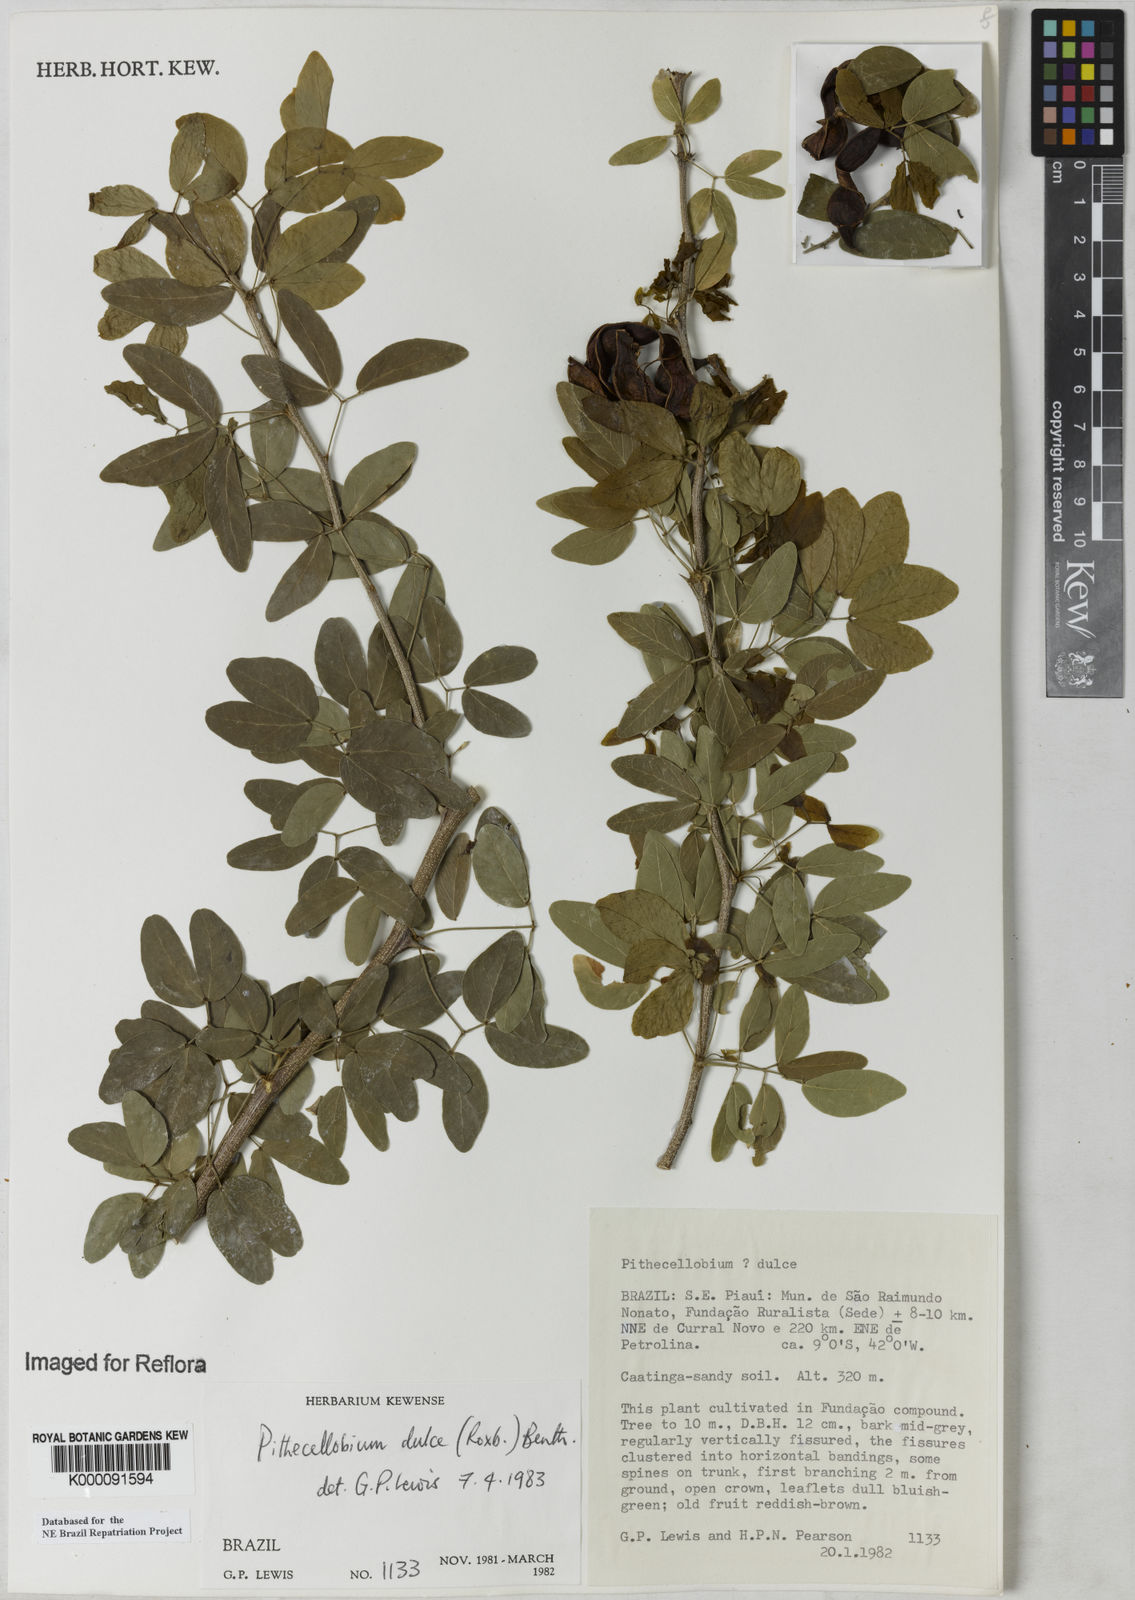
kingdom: Plantae
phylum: Tracheophyta
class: Magnoliopsida
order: Fabales
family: Fabaceae
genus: Pithecellobium
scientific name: Pithecellobium dulce
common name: Monkeypod
